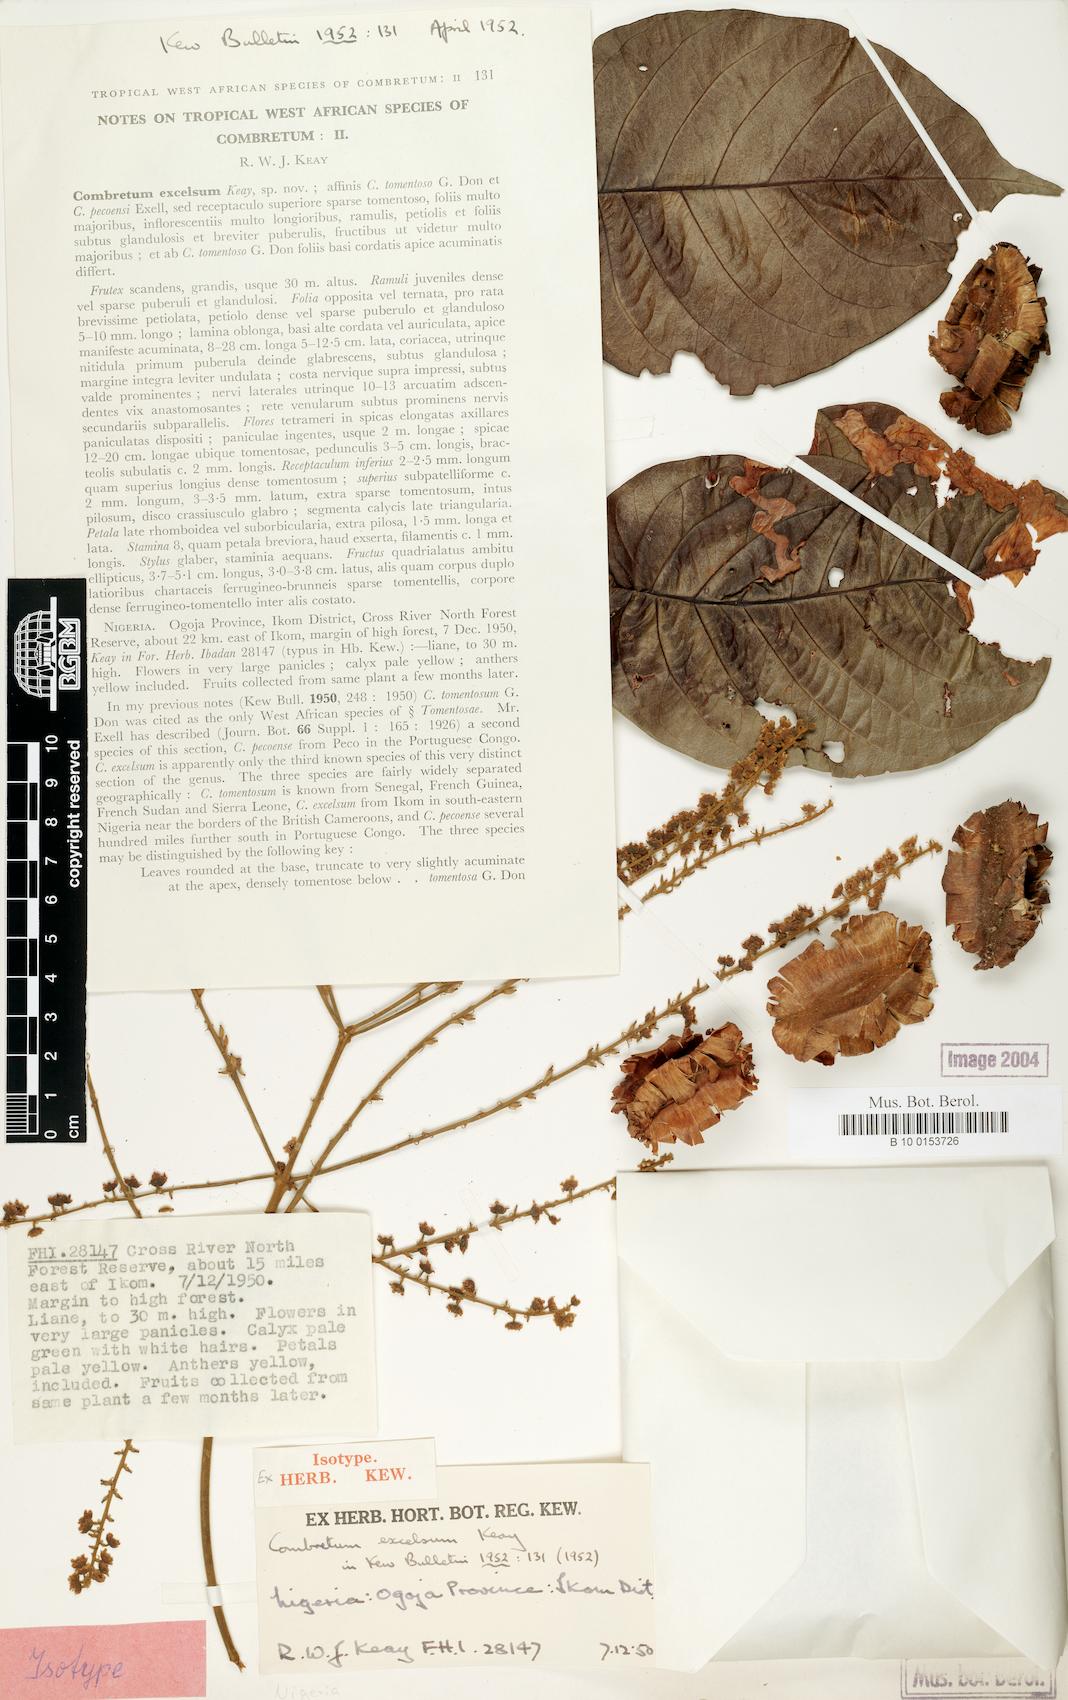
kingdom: Plantae
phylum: Tracheophyta
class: Magnoliopsida
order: Myrtales
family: Combretaceae
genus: Combretum
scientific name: Combretum pecoense
